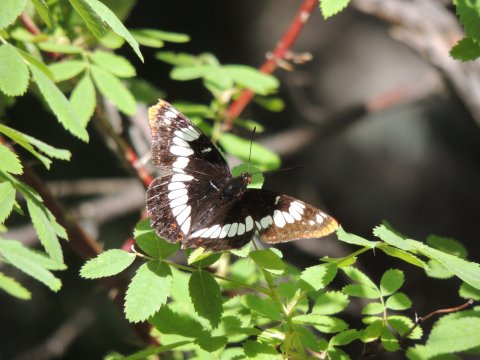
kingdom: Animalia
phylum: Arthropoda
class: Insecta
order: Lepidoptera
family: Nymphalidae
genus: Limenitis
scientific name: Limenitis lorquini
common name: Lorquin's Admiral
